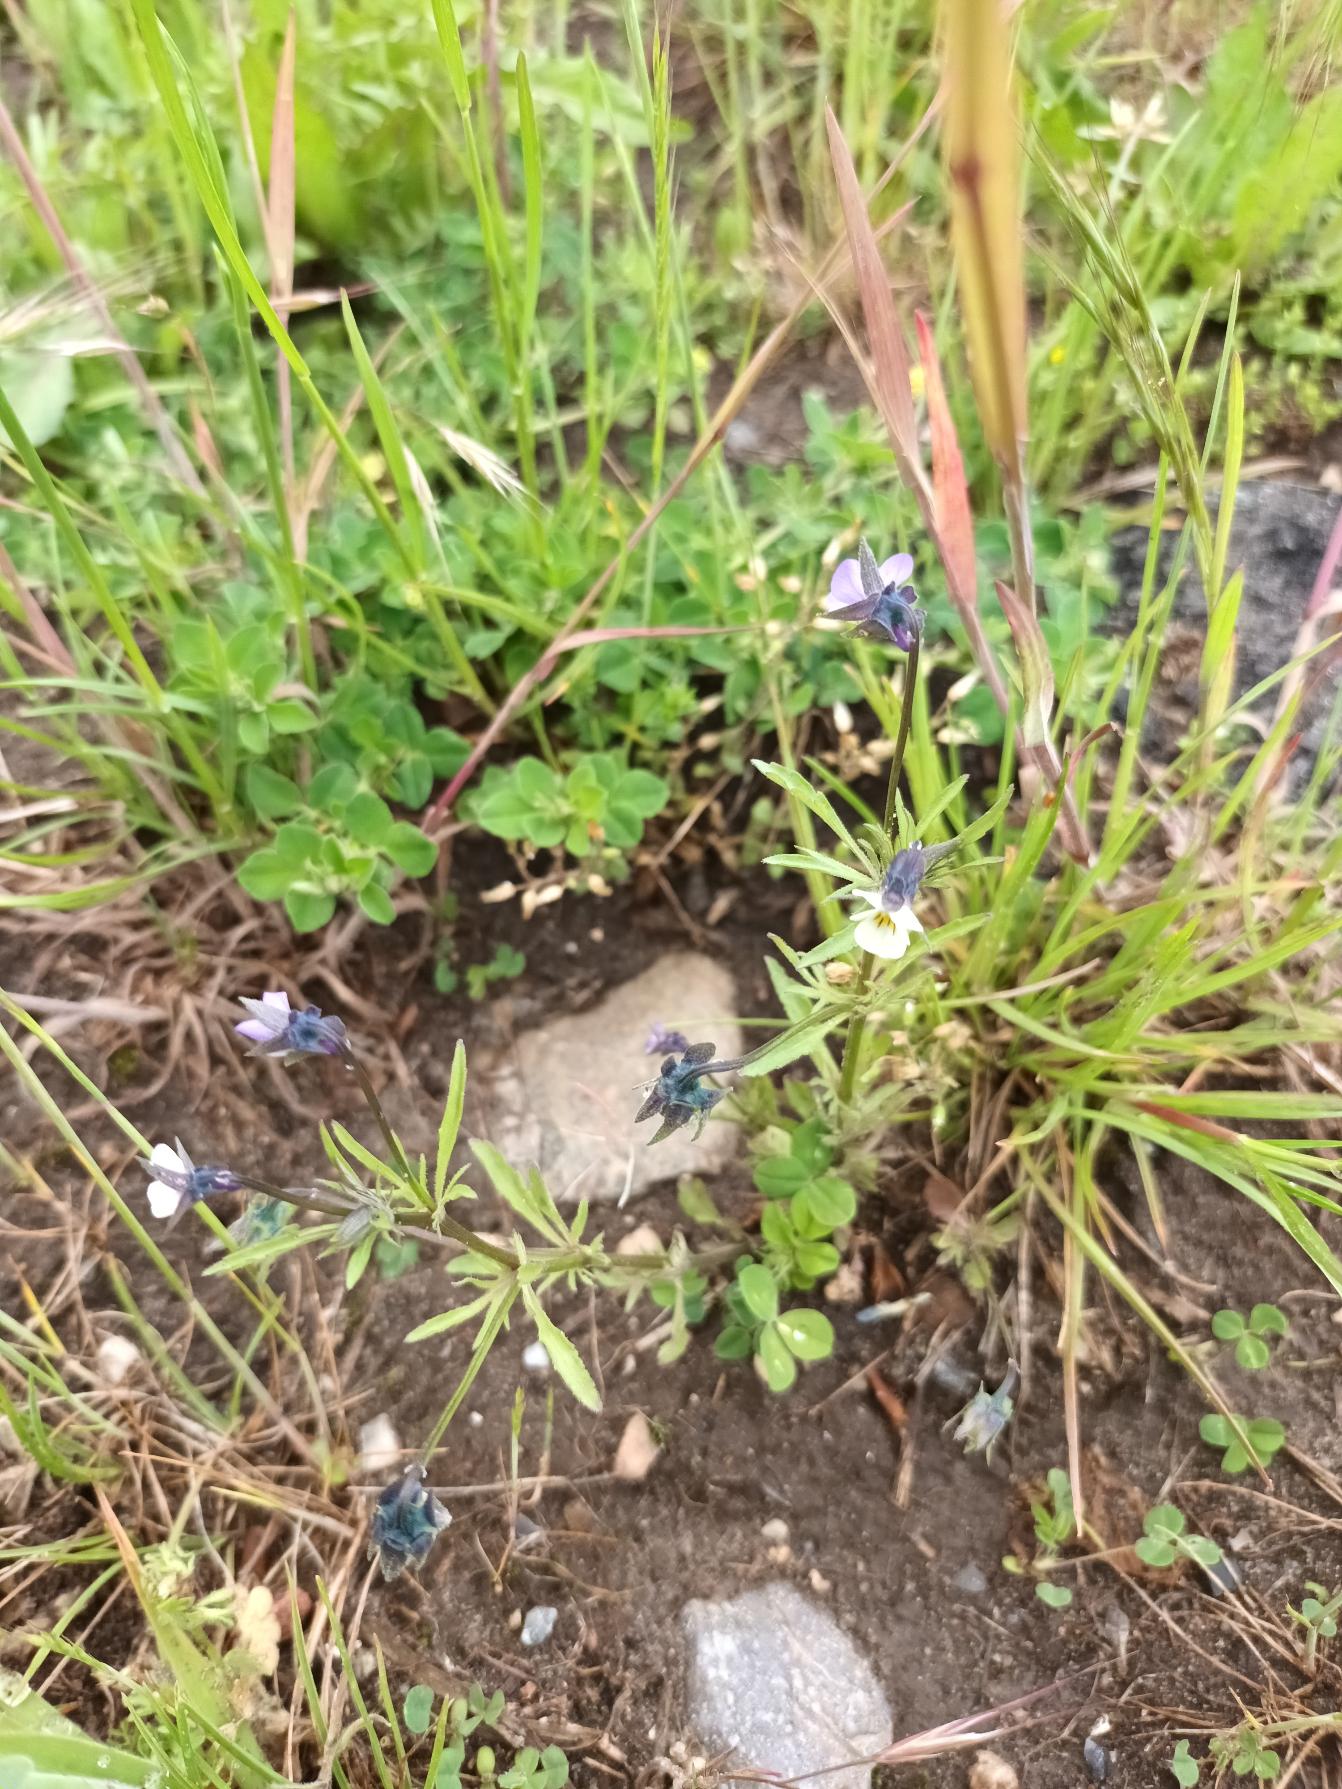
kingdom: Plantae
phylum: Tracheophyta
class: Magnoliopsida
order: Malpighiales
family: Violaceae
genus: Viola
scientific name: Viola arvensis
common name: Ager-stedmoderblomst
